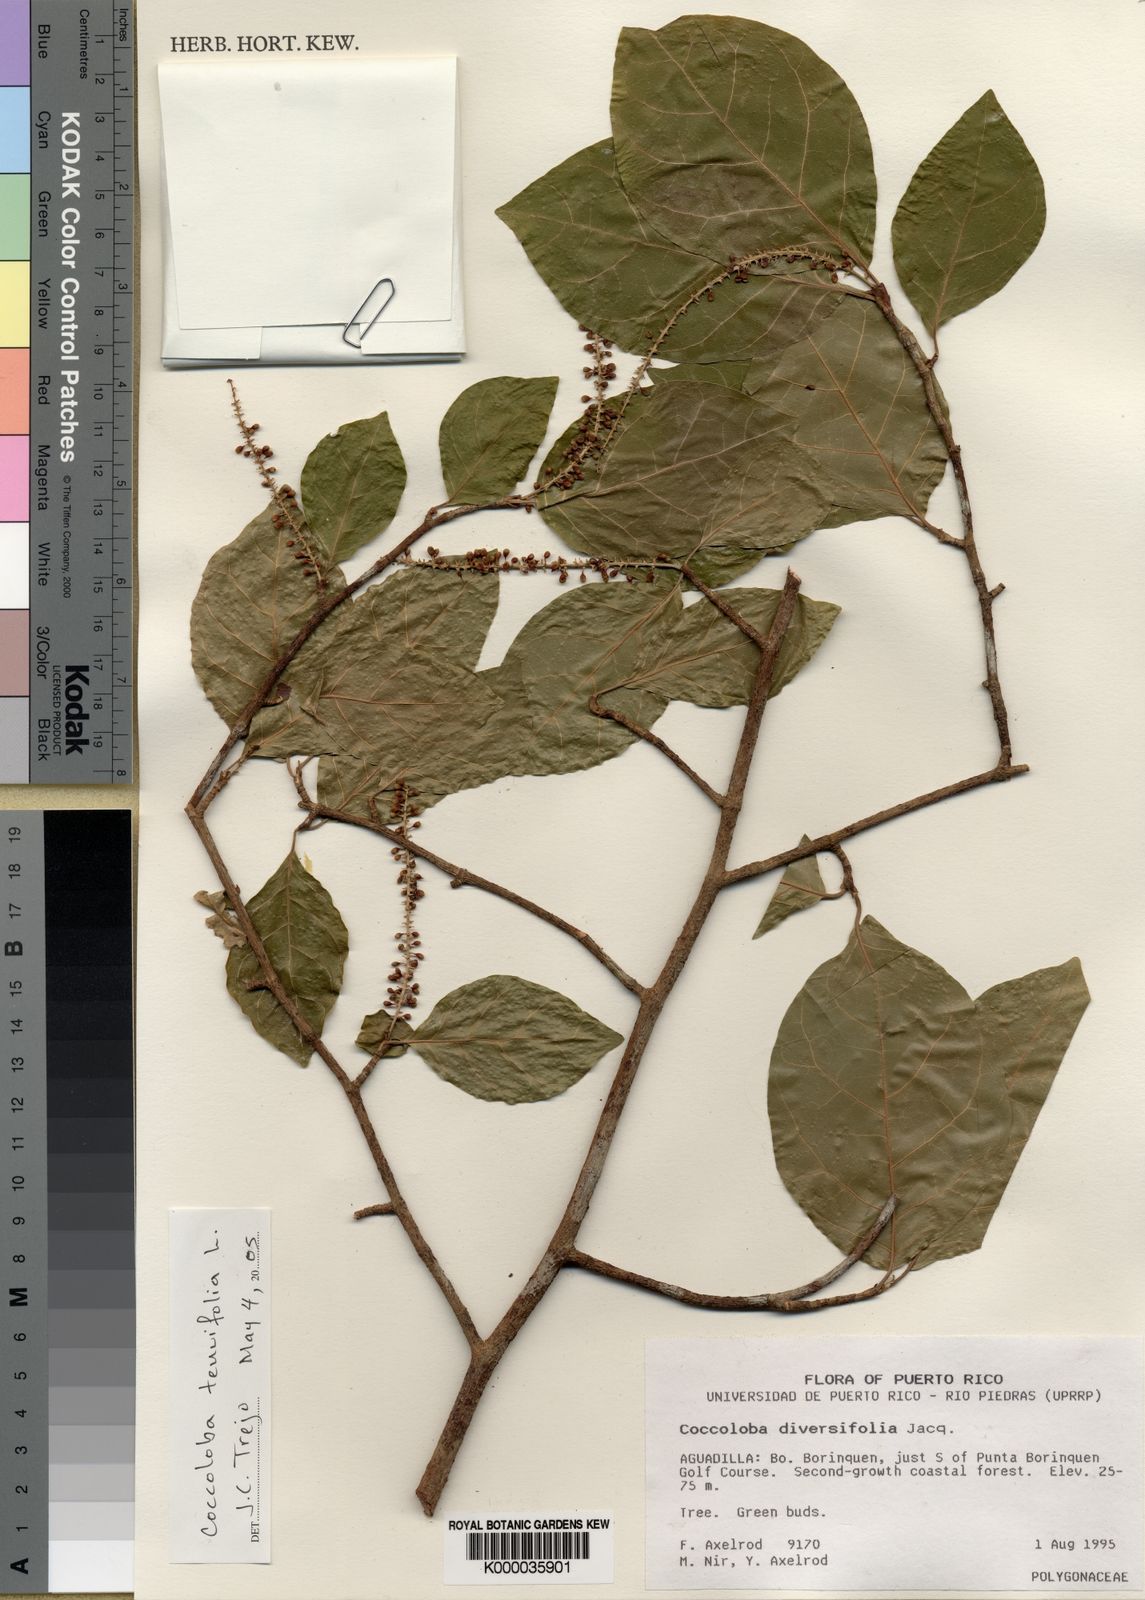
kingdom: Plantae
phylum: Tracheophyta
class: Magnoliopsida
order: Caryophyllales
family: Polygonaceae
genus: Coccoloba
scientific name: Coccoloba tenuifolia
